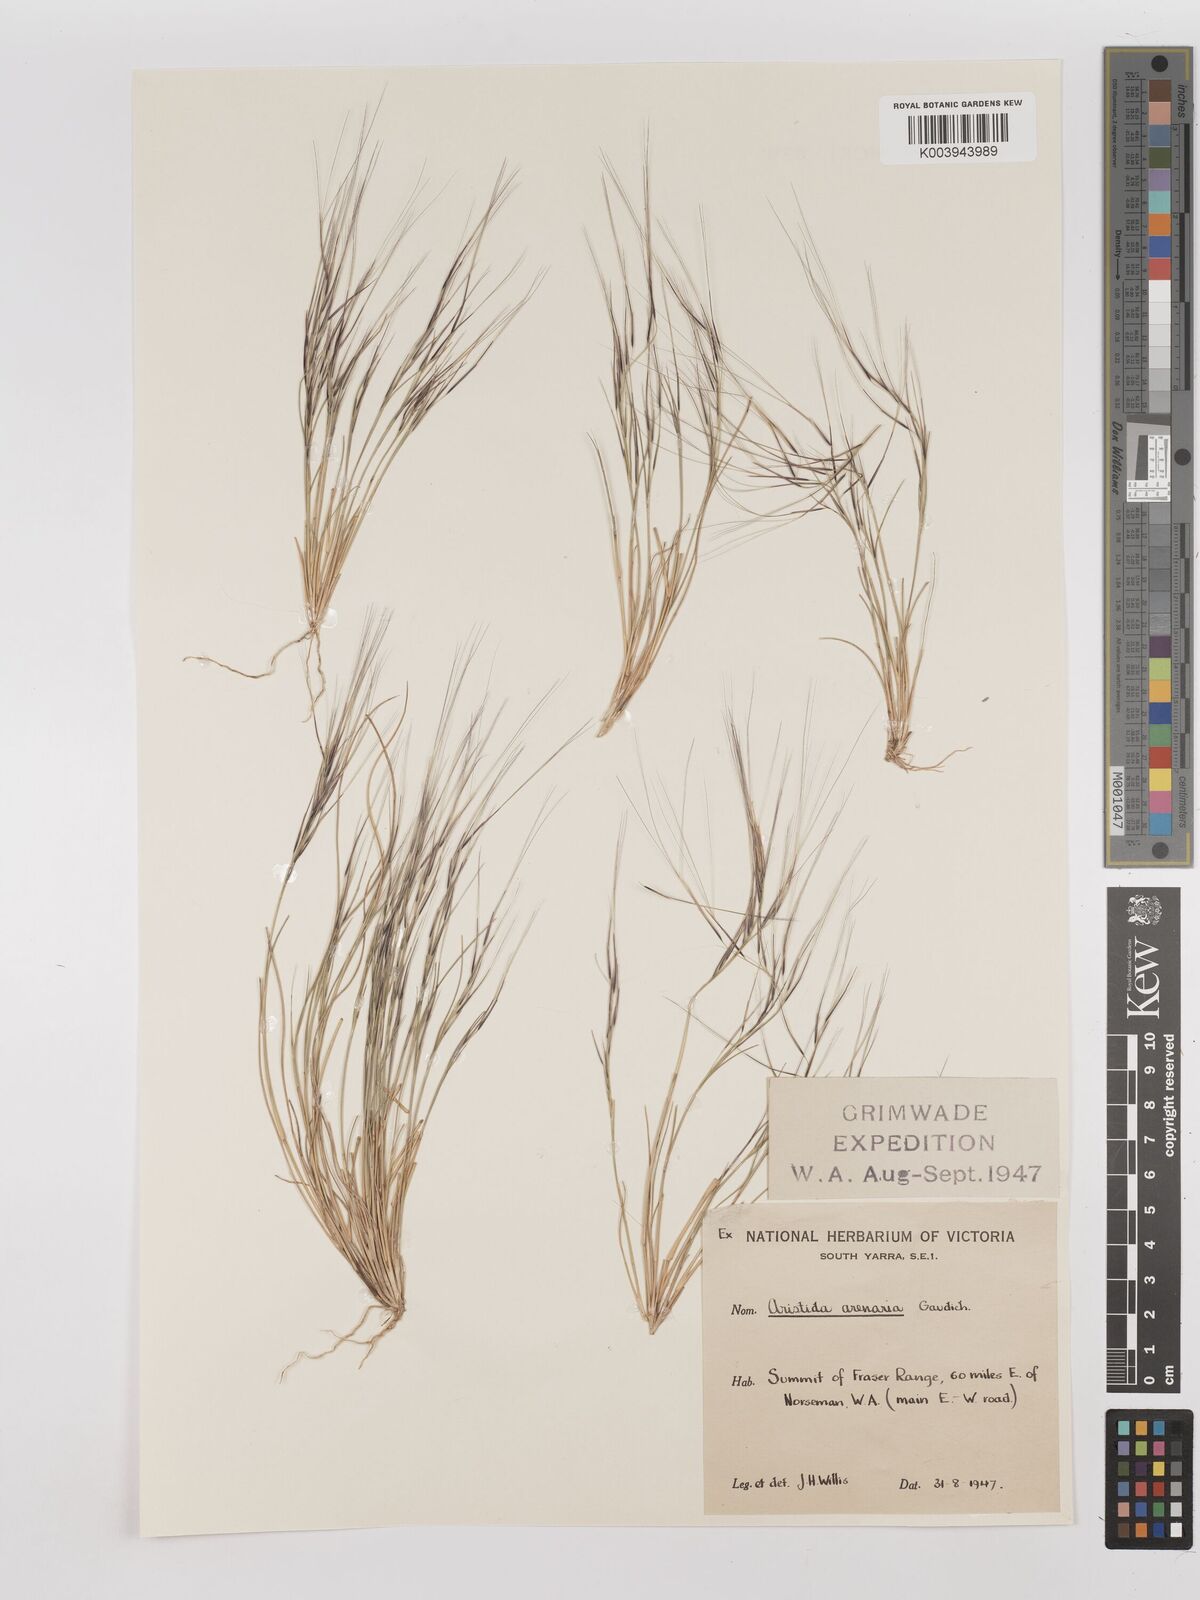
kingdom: Plantae
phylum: Tracheophyta
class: Liliopsida
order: Poales
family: Poaceae
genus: Aristida
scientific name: Aristida contorta
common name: Bunch kerosene grass
